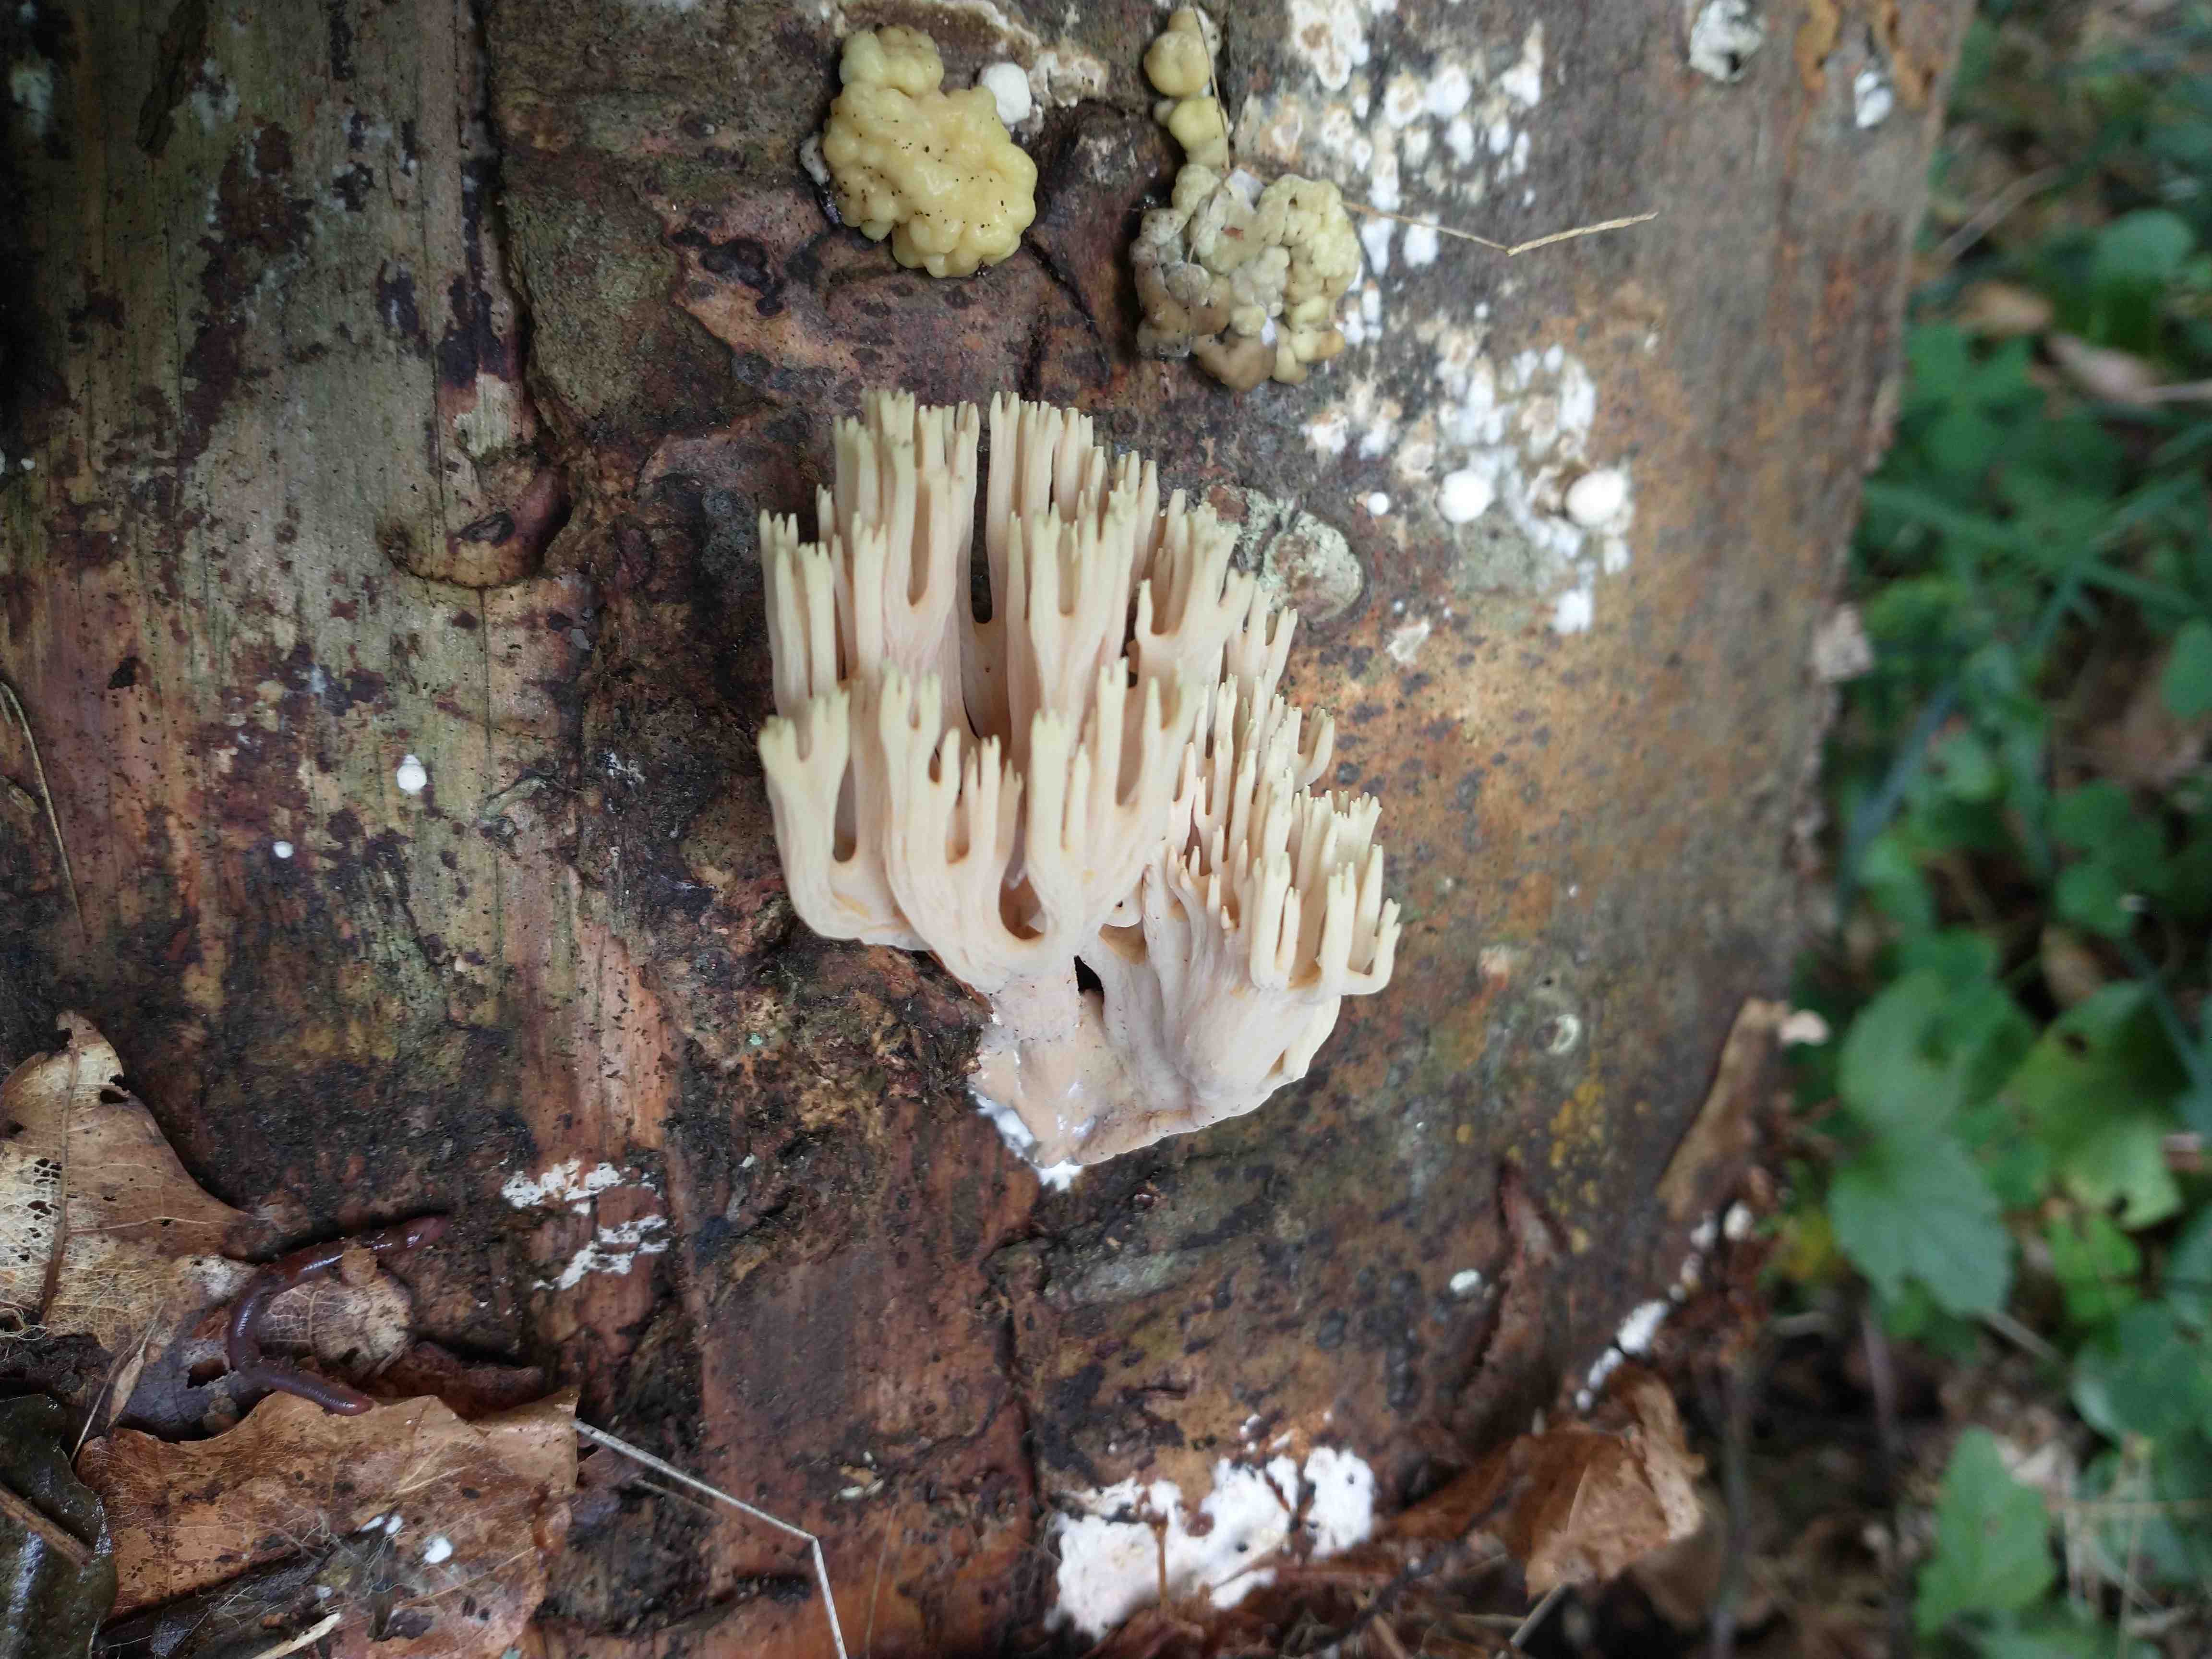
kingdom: Fungi
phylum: Basidiomycota
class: Agaricomycetes
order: Gomphales
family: Gomphaceae
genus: Ramaria
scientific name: Ramaria apiculata
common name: grøntoppet koralsvamp
